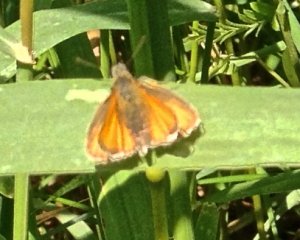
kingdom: Animalia
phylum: Arthropoda
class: Insecta
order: Lepidoptera
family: Hesperiidae
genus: Thymelicus
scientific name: Thymelicus lineola
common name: European Skipper
